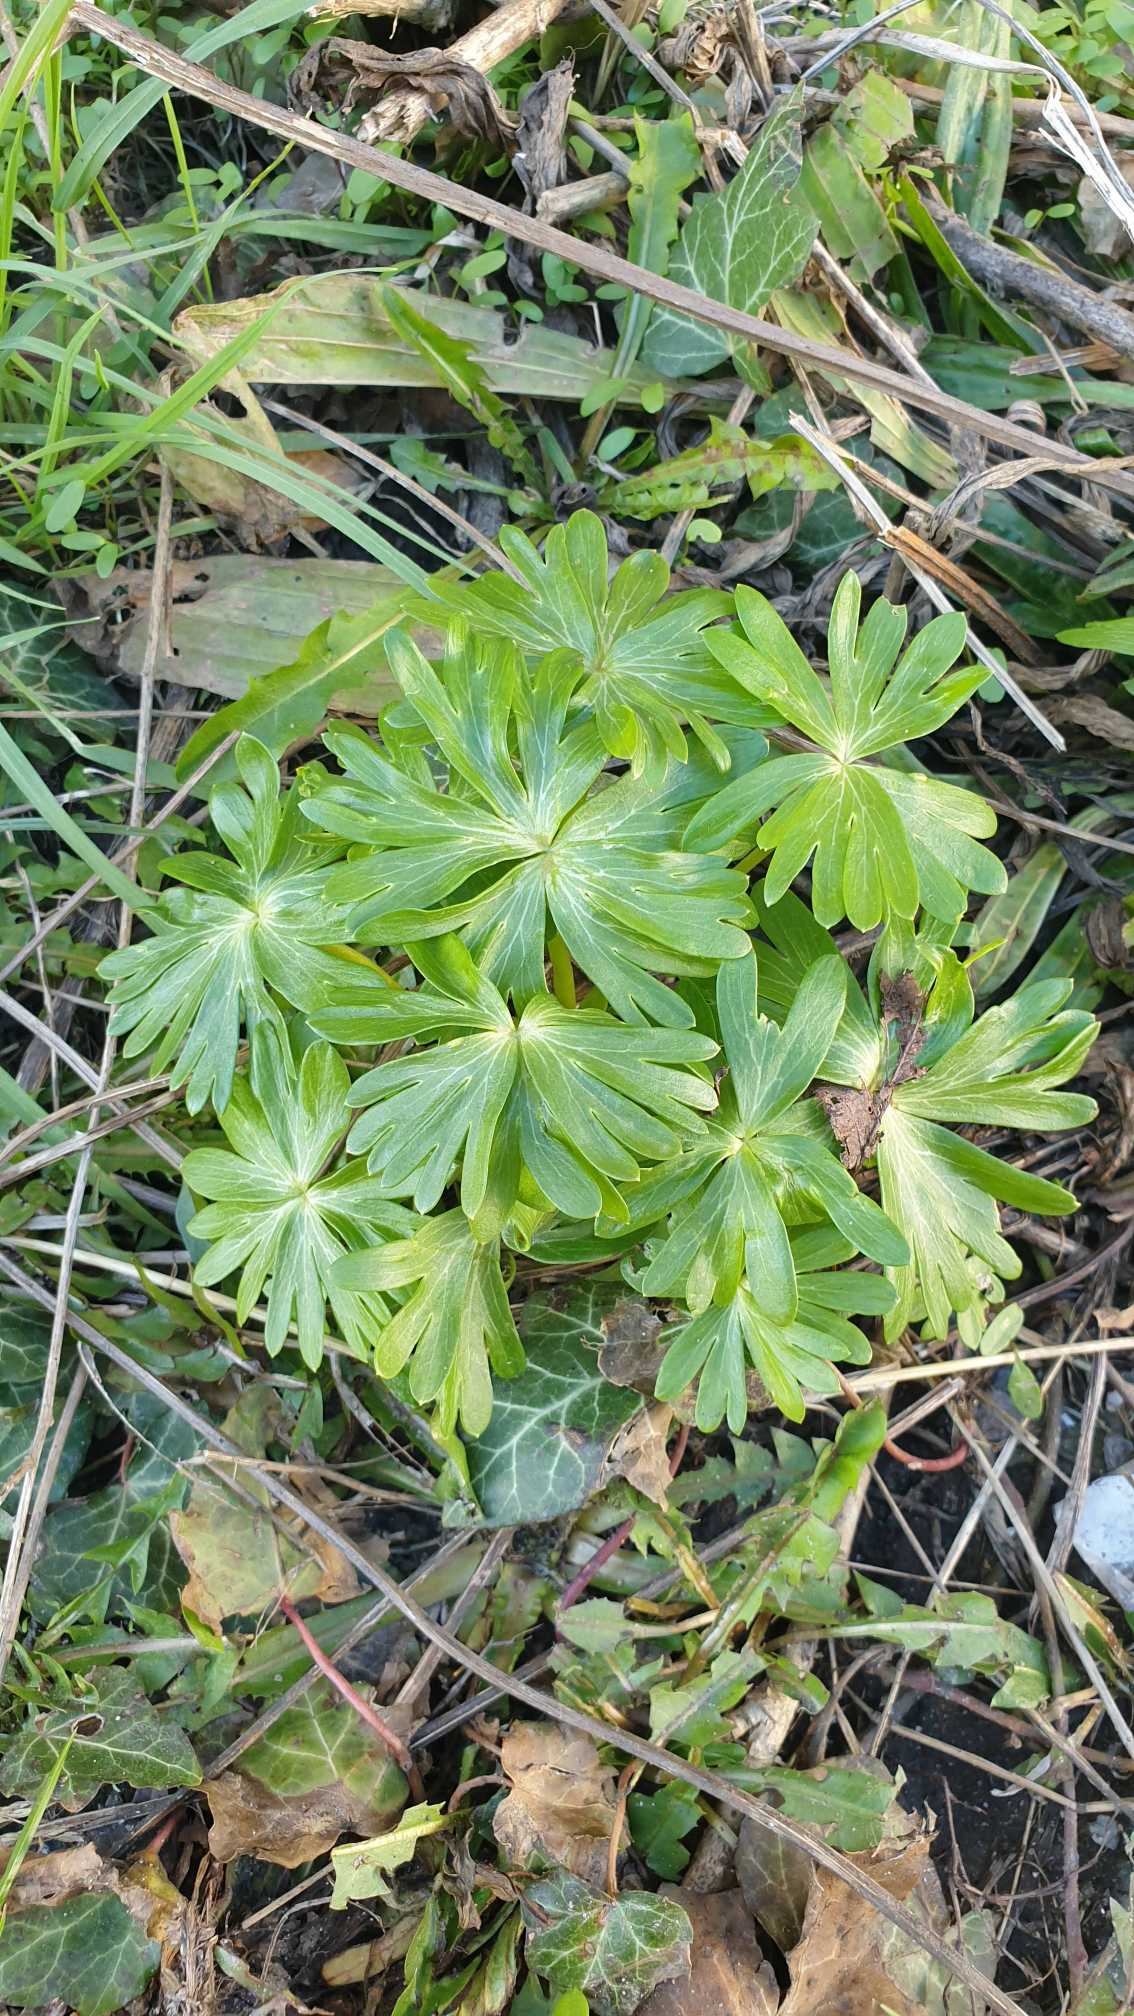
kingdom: Plantae
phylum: Tracheophyta
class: Magnoliopsida
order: Ranunculales
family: Ranunculaceae
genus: Eranthis
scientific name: Eranthis hyemalis
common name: Erantis
